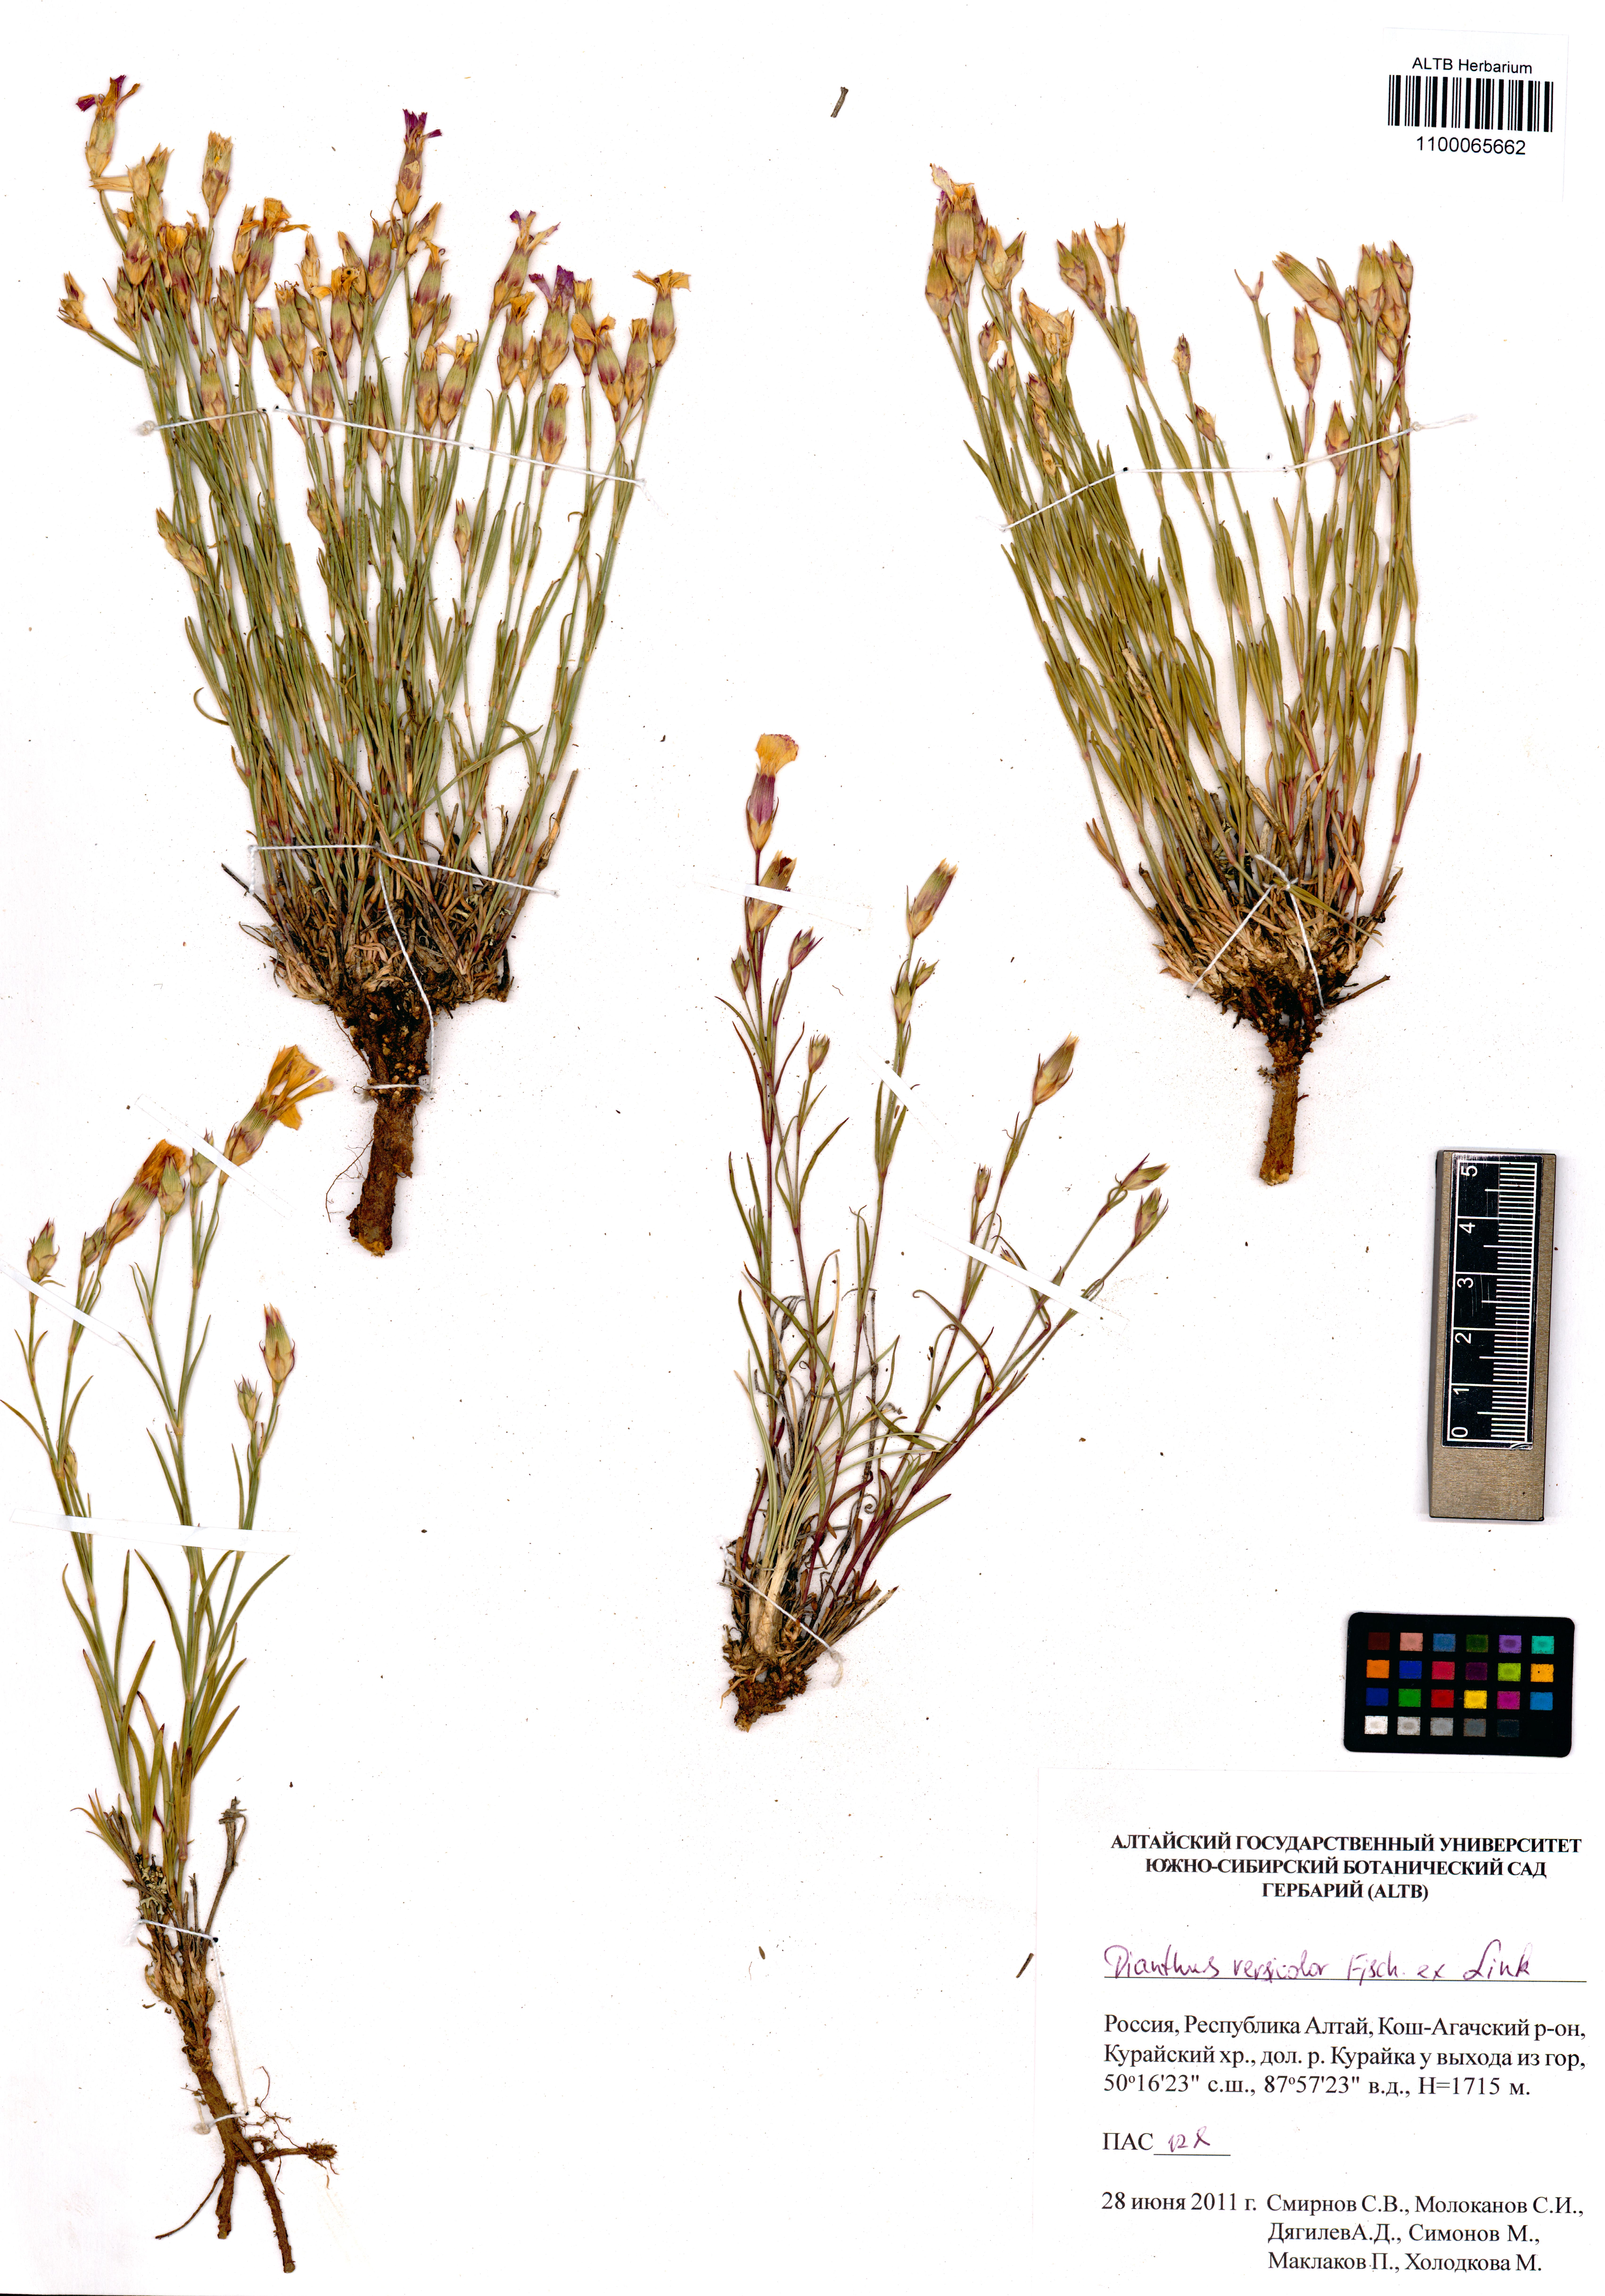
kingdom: Plantae
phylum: Tracheophyta
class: Magnoliopsida
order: Caryophyllales
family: Caryophyllaceae
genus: Dianthus
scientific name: Dianthus chinensis
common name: Rainbow pink
